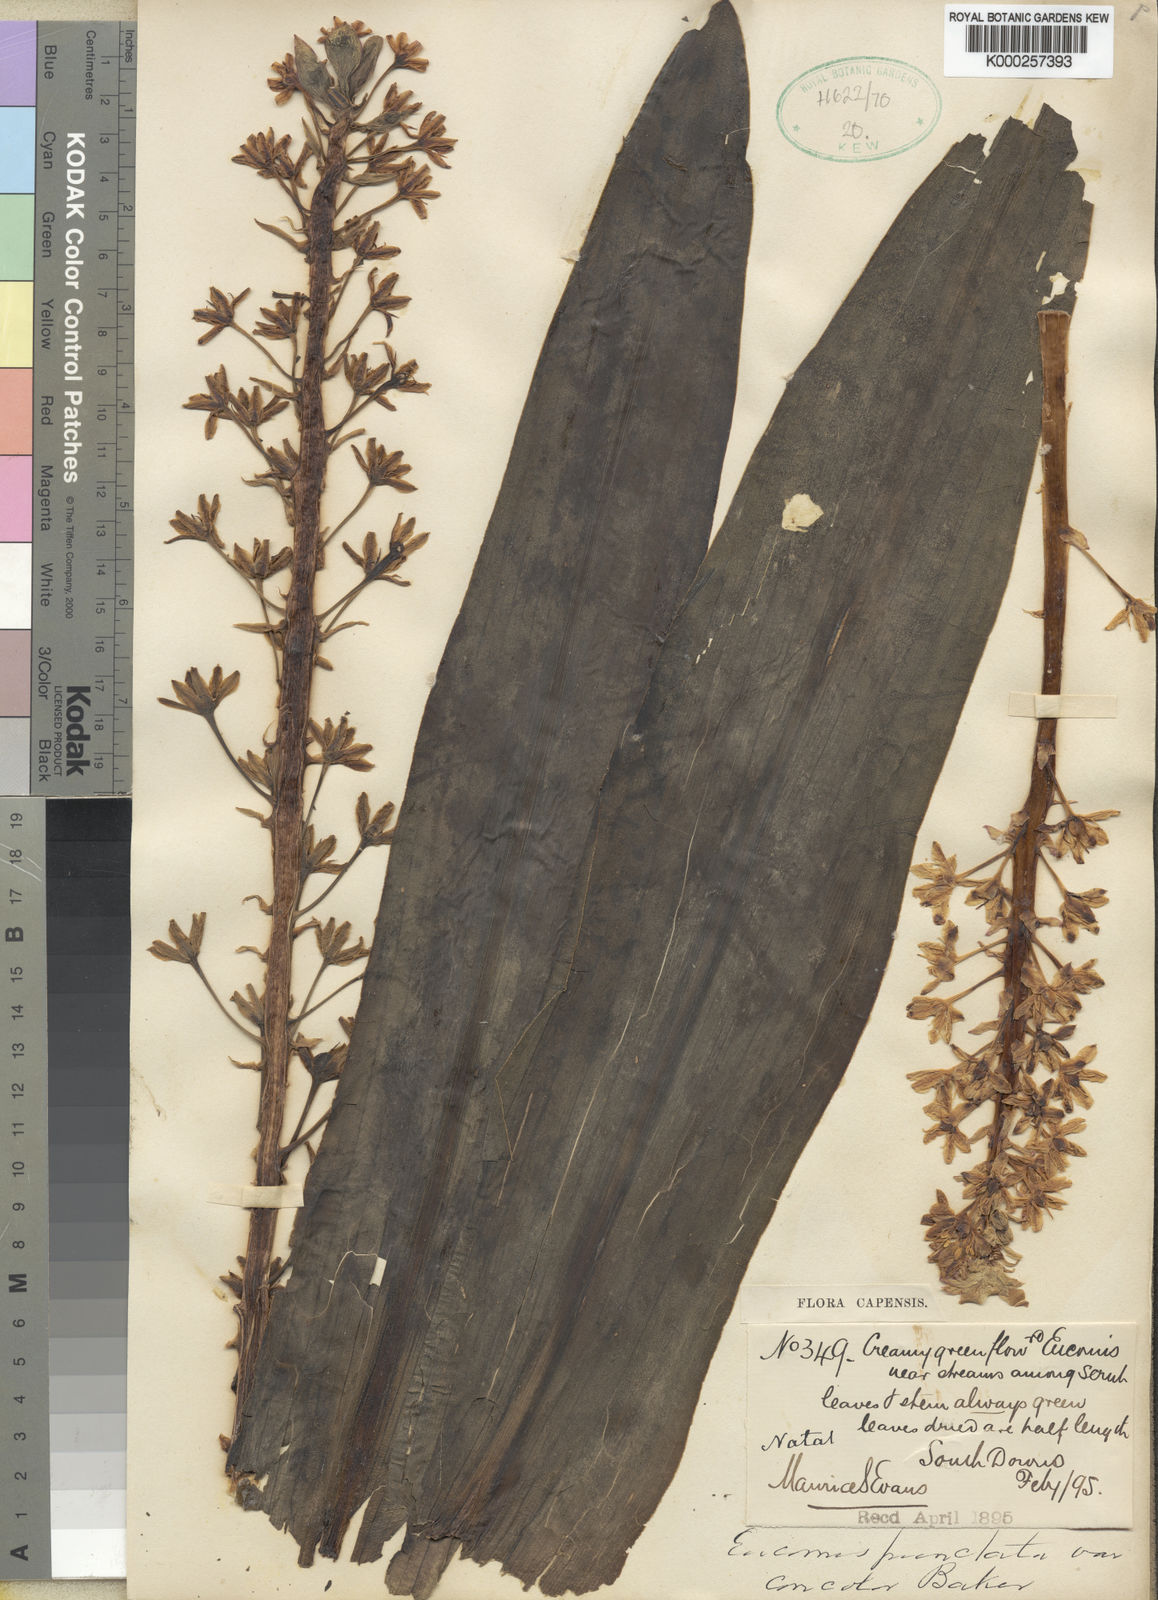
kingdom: Plantae
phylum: Tracheophyta
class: Liliopsida
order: Asparagales
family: Asparagaceae
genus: Eucomis
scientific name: Eucomis comosa
